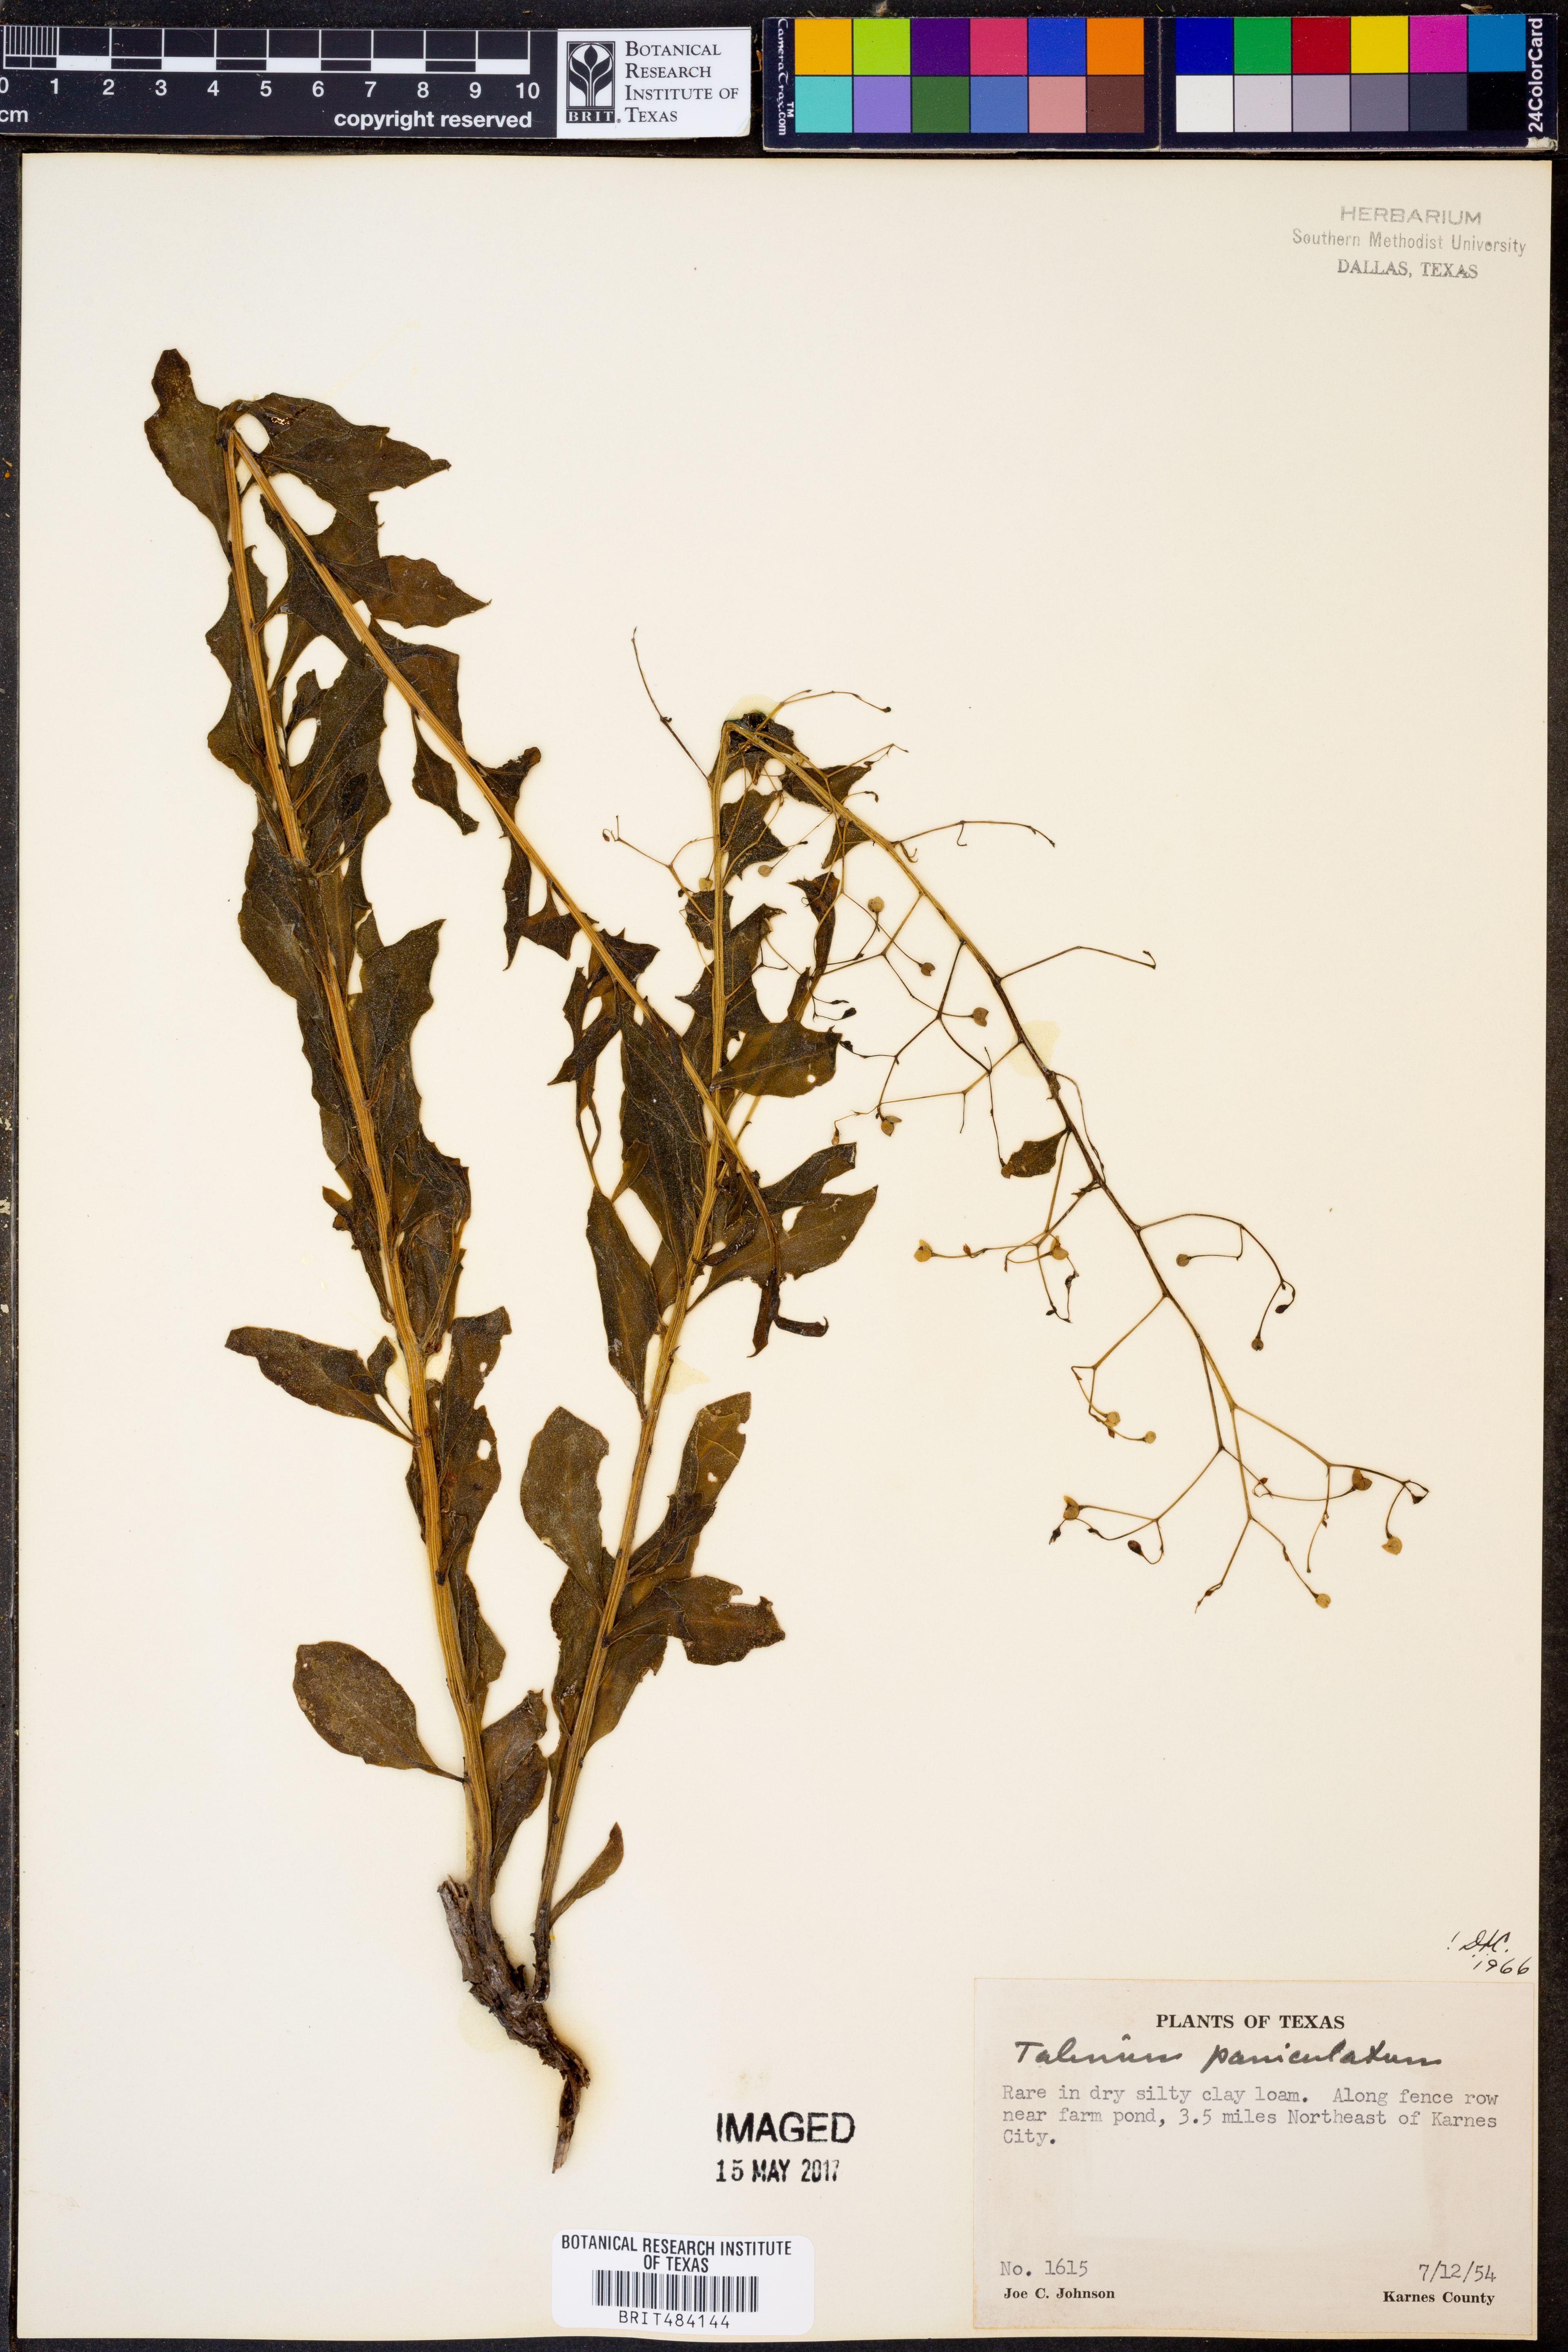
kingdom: Plantae
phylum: Tracheophyta
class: Magnoliopsida
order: Caryophyllales
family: Talinaceae
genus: Talinum
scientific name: Talinum paniculatum
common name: Jewels of opar
